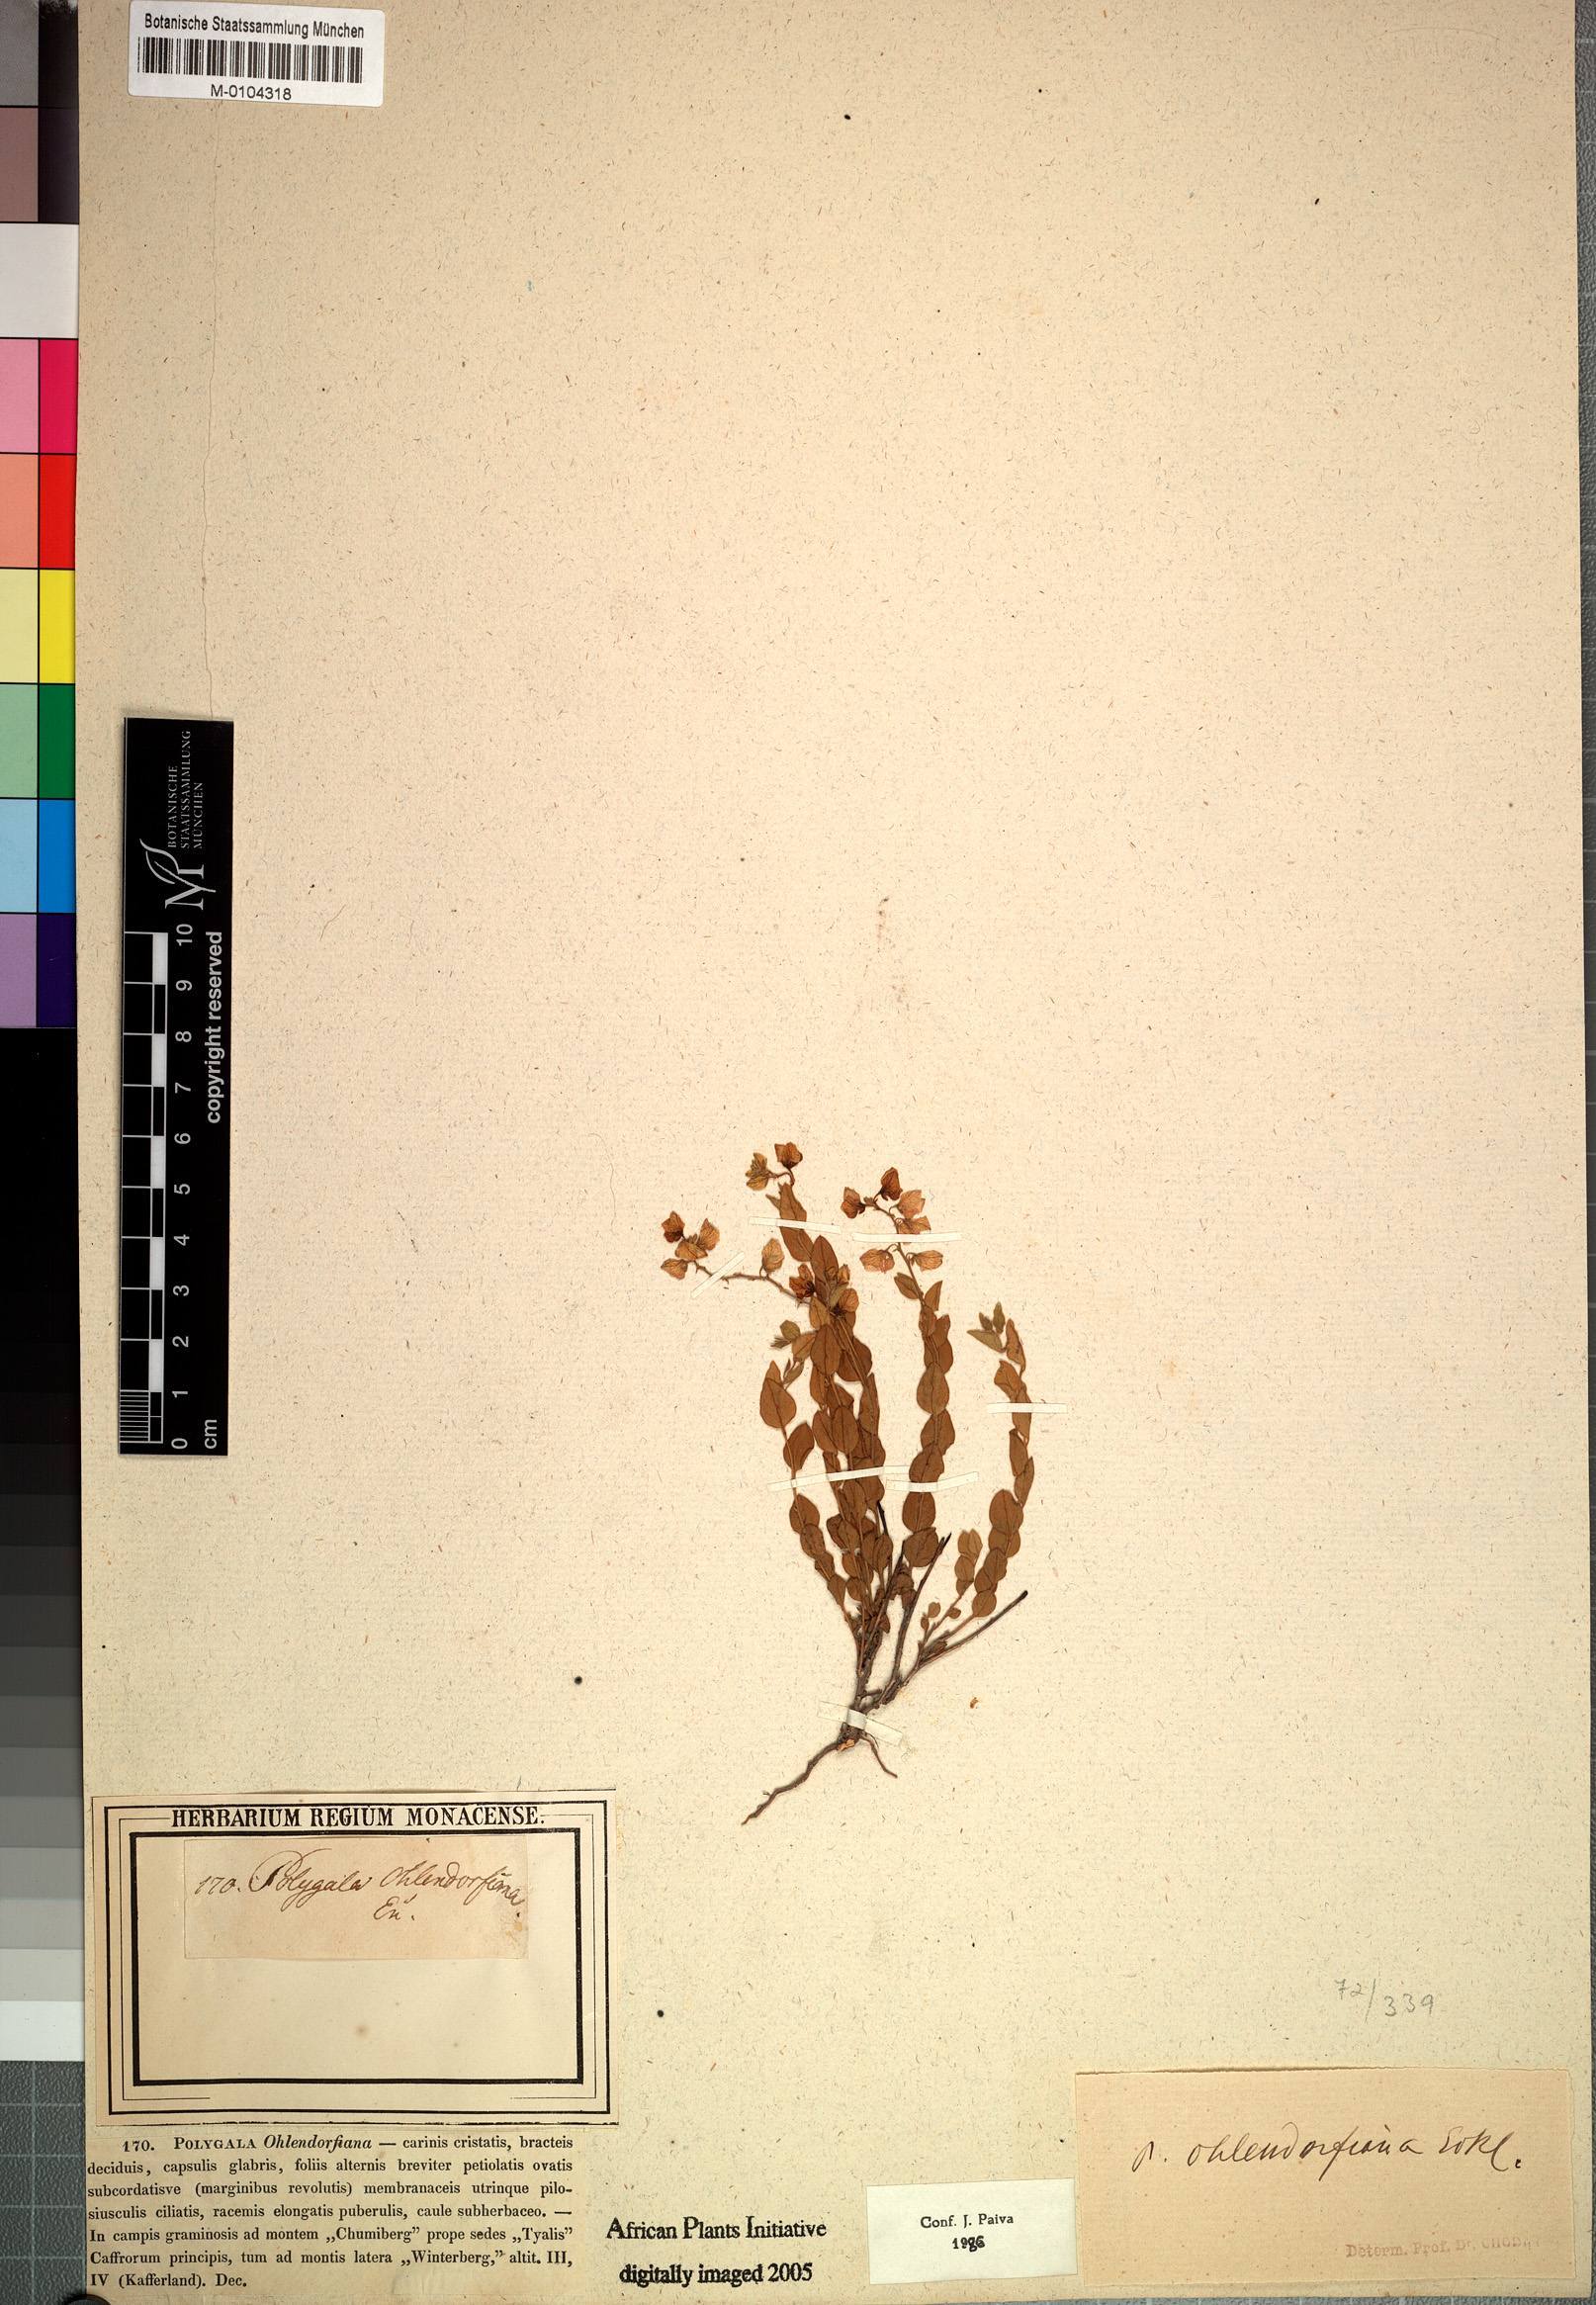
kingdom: Plantae
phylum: Tracheophyta
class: Magnoliopsida
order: Fabales
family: Polygalaceae
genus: Polygala
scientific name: Polygala ohlendorfiana
